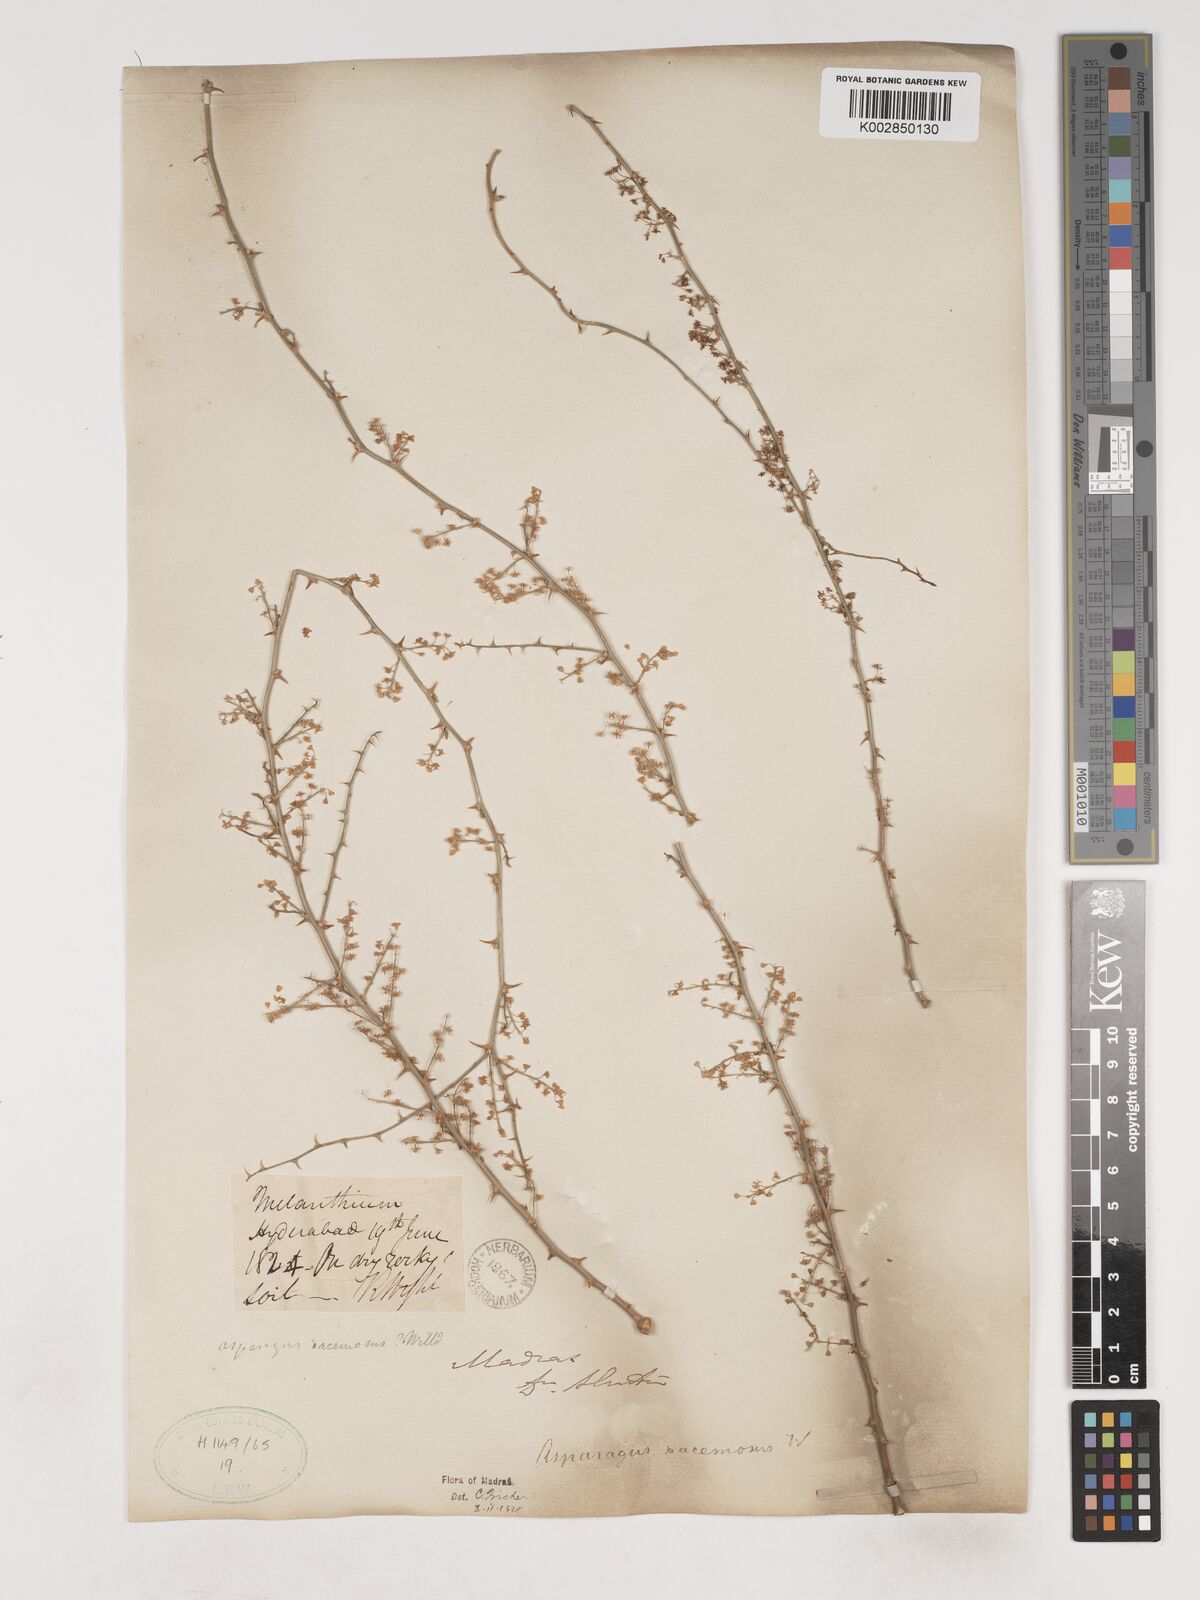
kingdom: Plantae
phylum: Tracheophyta
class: Liliopsida
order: Asparagales
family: Asparagaceae
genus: Asparagus
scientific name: Asparagus racemosus
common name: Asparagus-fern
